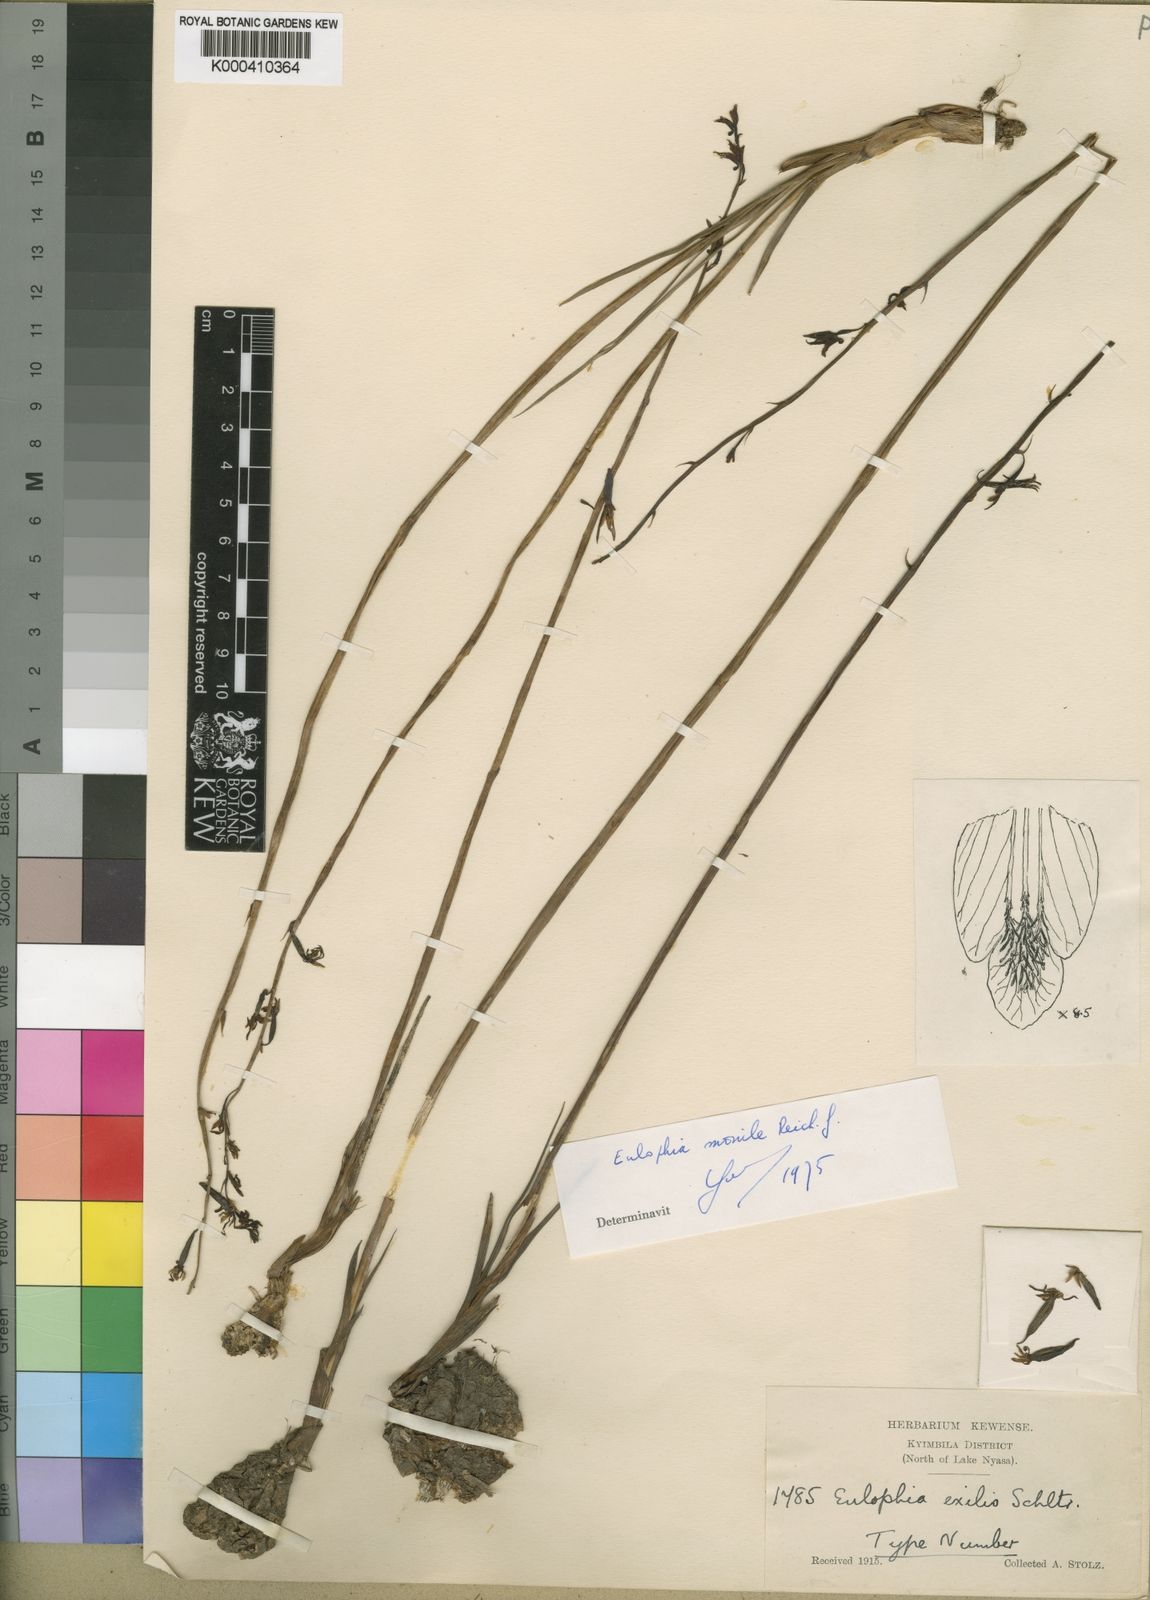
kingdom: Plantae
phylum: Tracheophyta
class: Liliopsida
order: Asparagales
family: Orchidaceae
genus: Eulophia
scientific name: Eulophia monile
